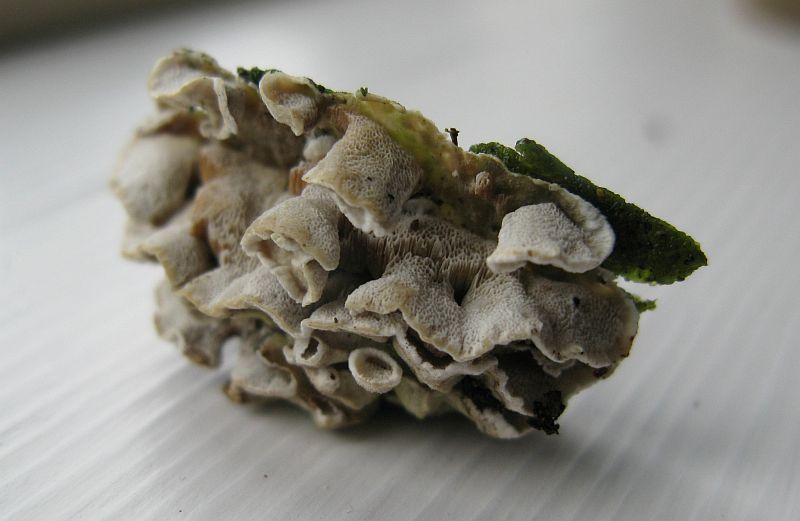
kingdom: Fungi
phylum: Basidiomycota
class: Agaricomycetes
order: Polyporales
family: Incrustoporiaceae
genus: Skeletocutis
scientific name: Skeletocutis carneogrisea
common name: rødgrå krystalporesvamp
